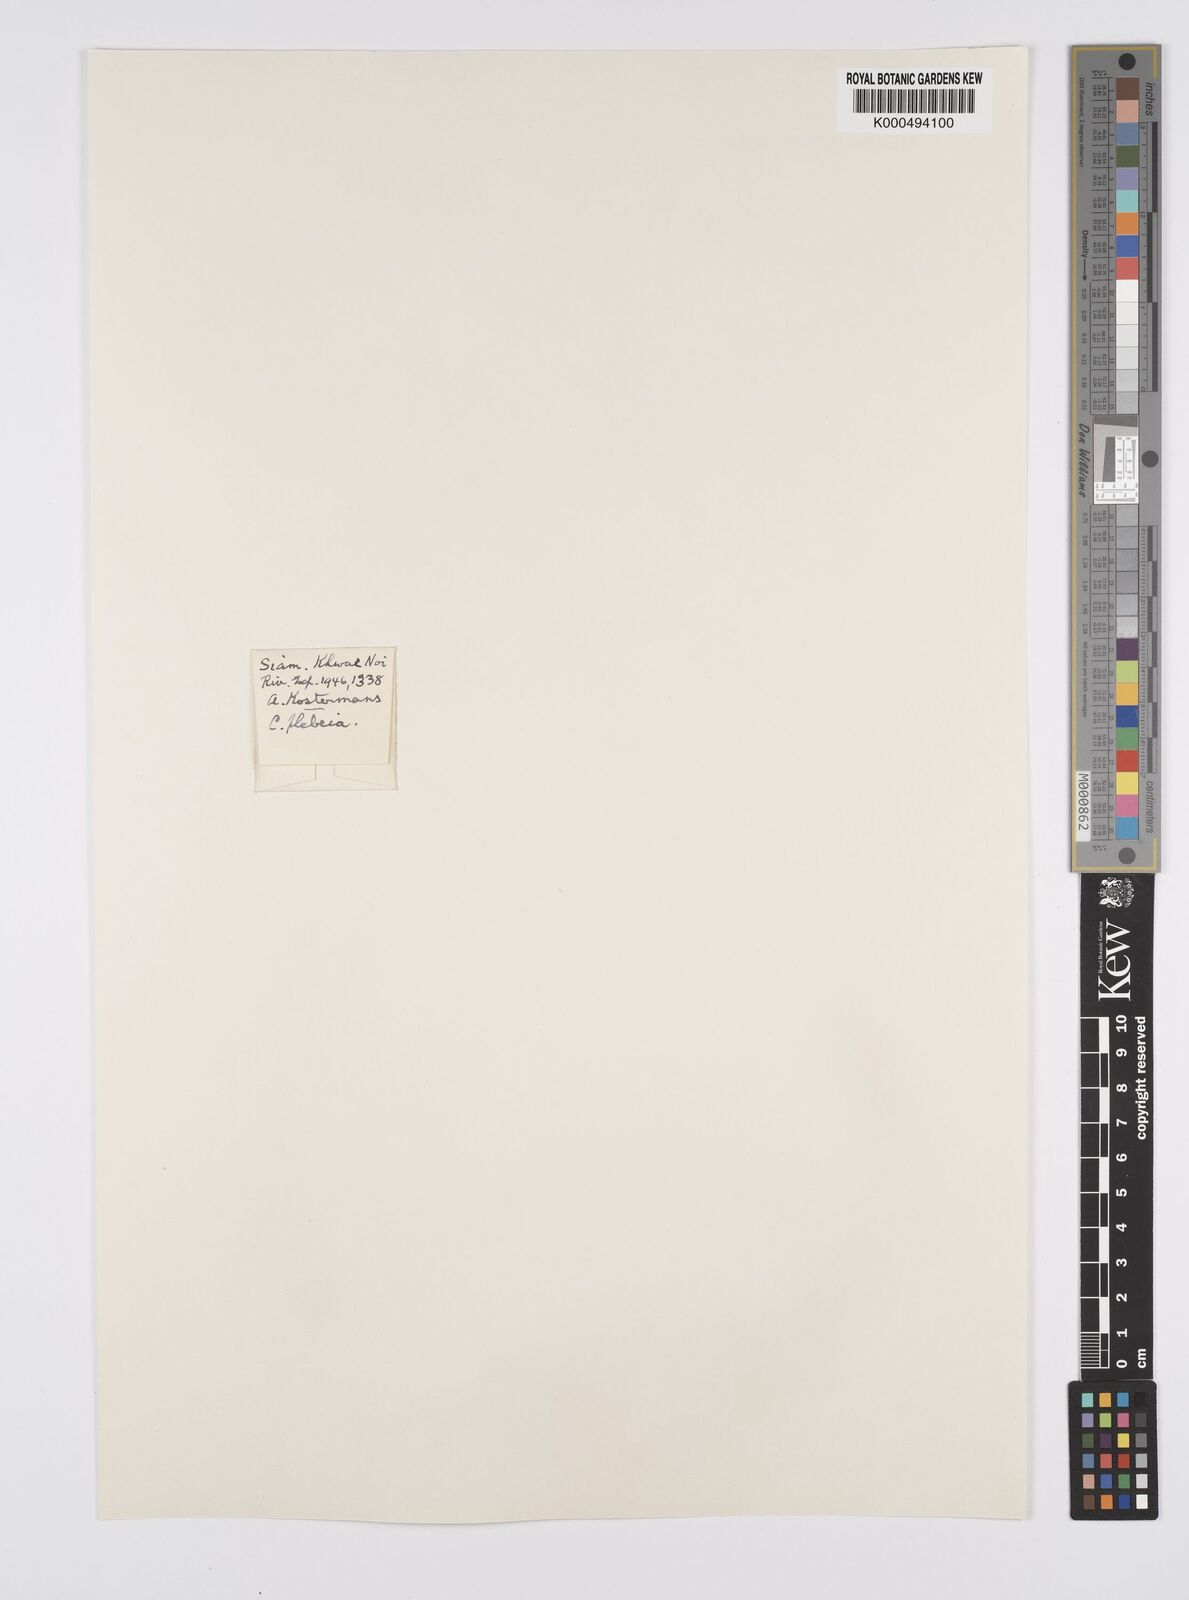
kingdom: Plantae
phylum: Tracheophyta
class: Liliopsida
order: Poales
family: Cyperaceae
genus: Carex
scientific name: Carex continua
